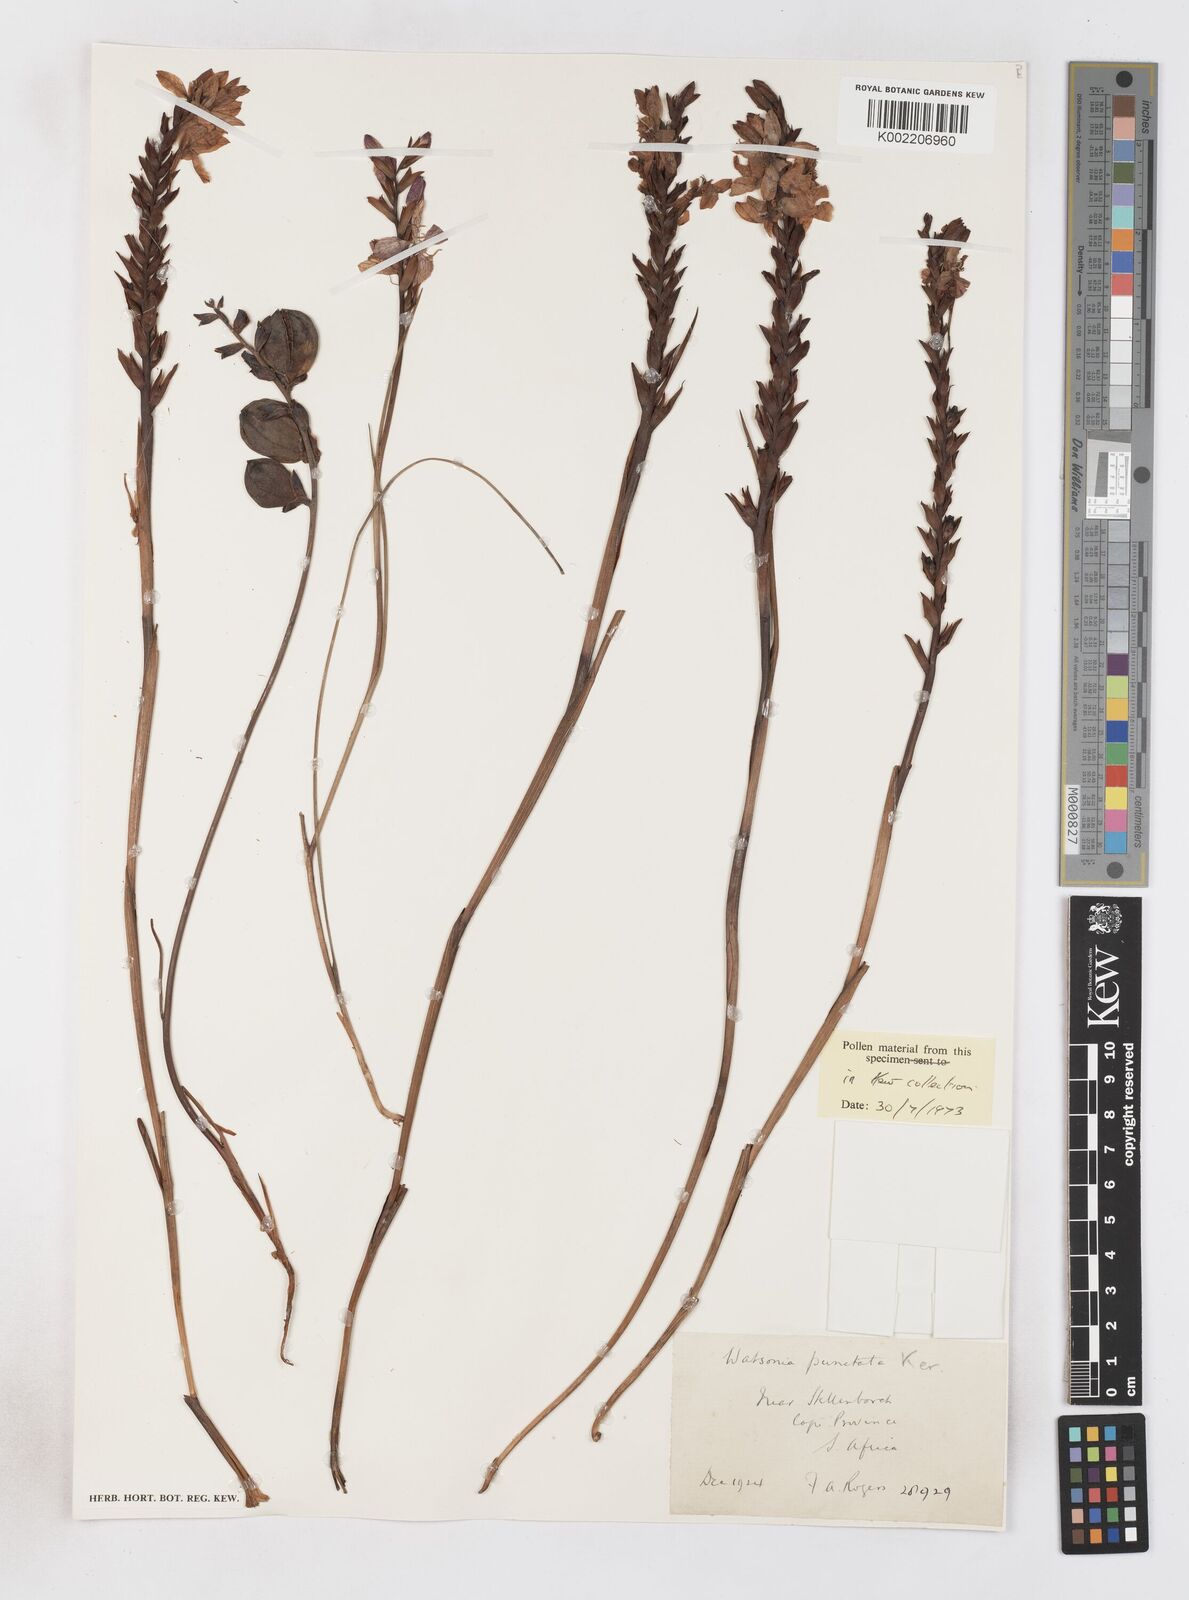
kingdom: Plantae
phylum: Tracheophyta
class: Liliopsida
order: Asparagales
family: Iridaceae
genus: Thereianthus
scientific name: Thereianthus spicatus
